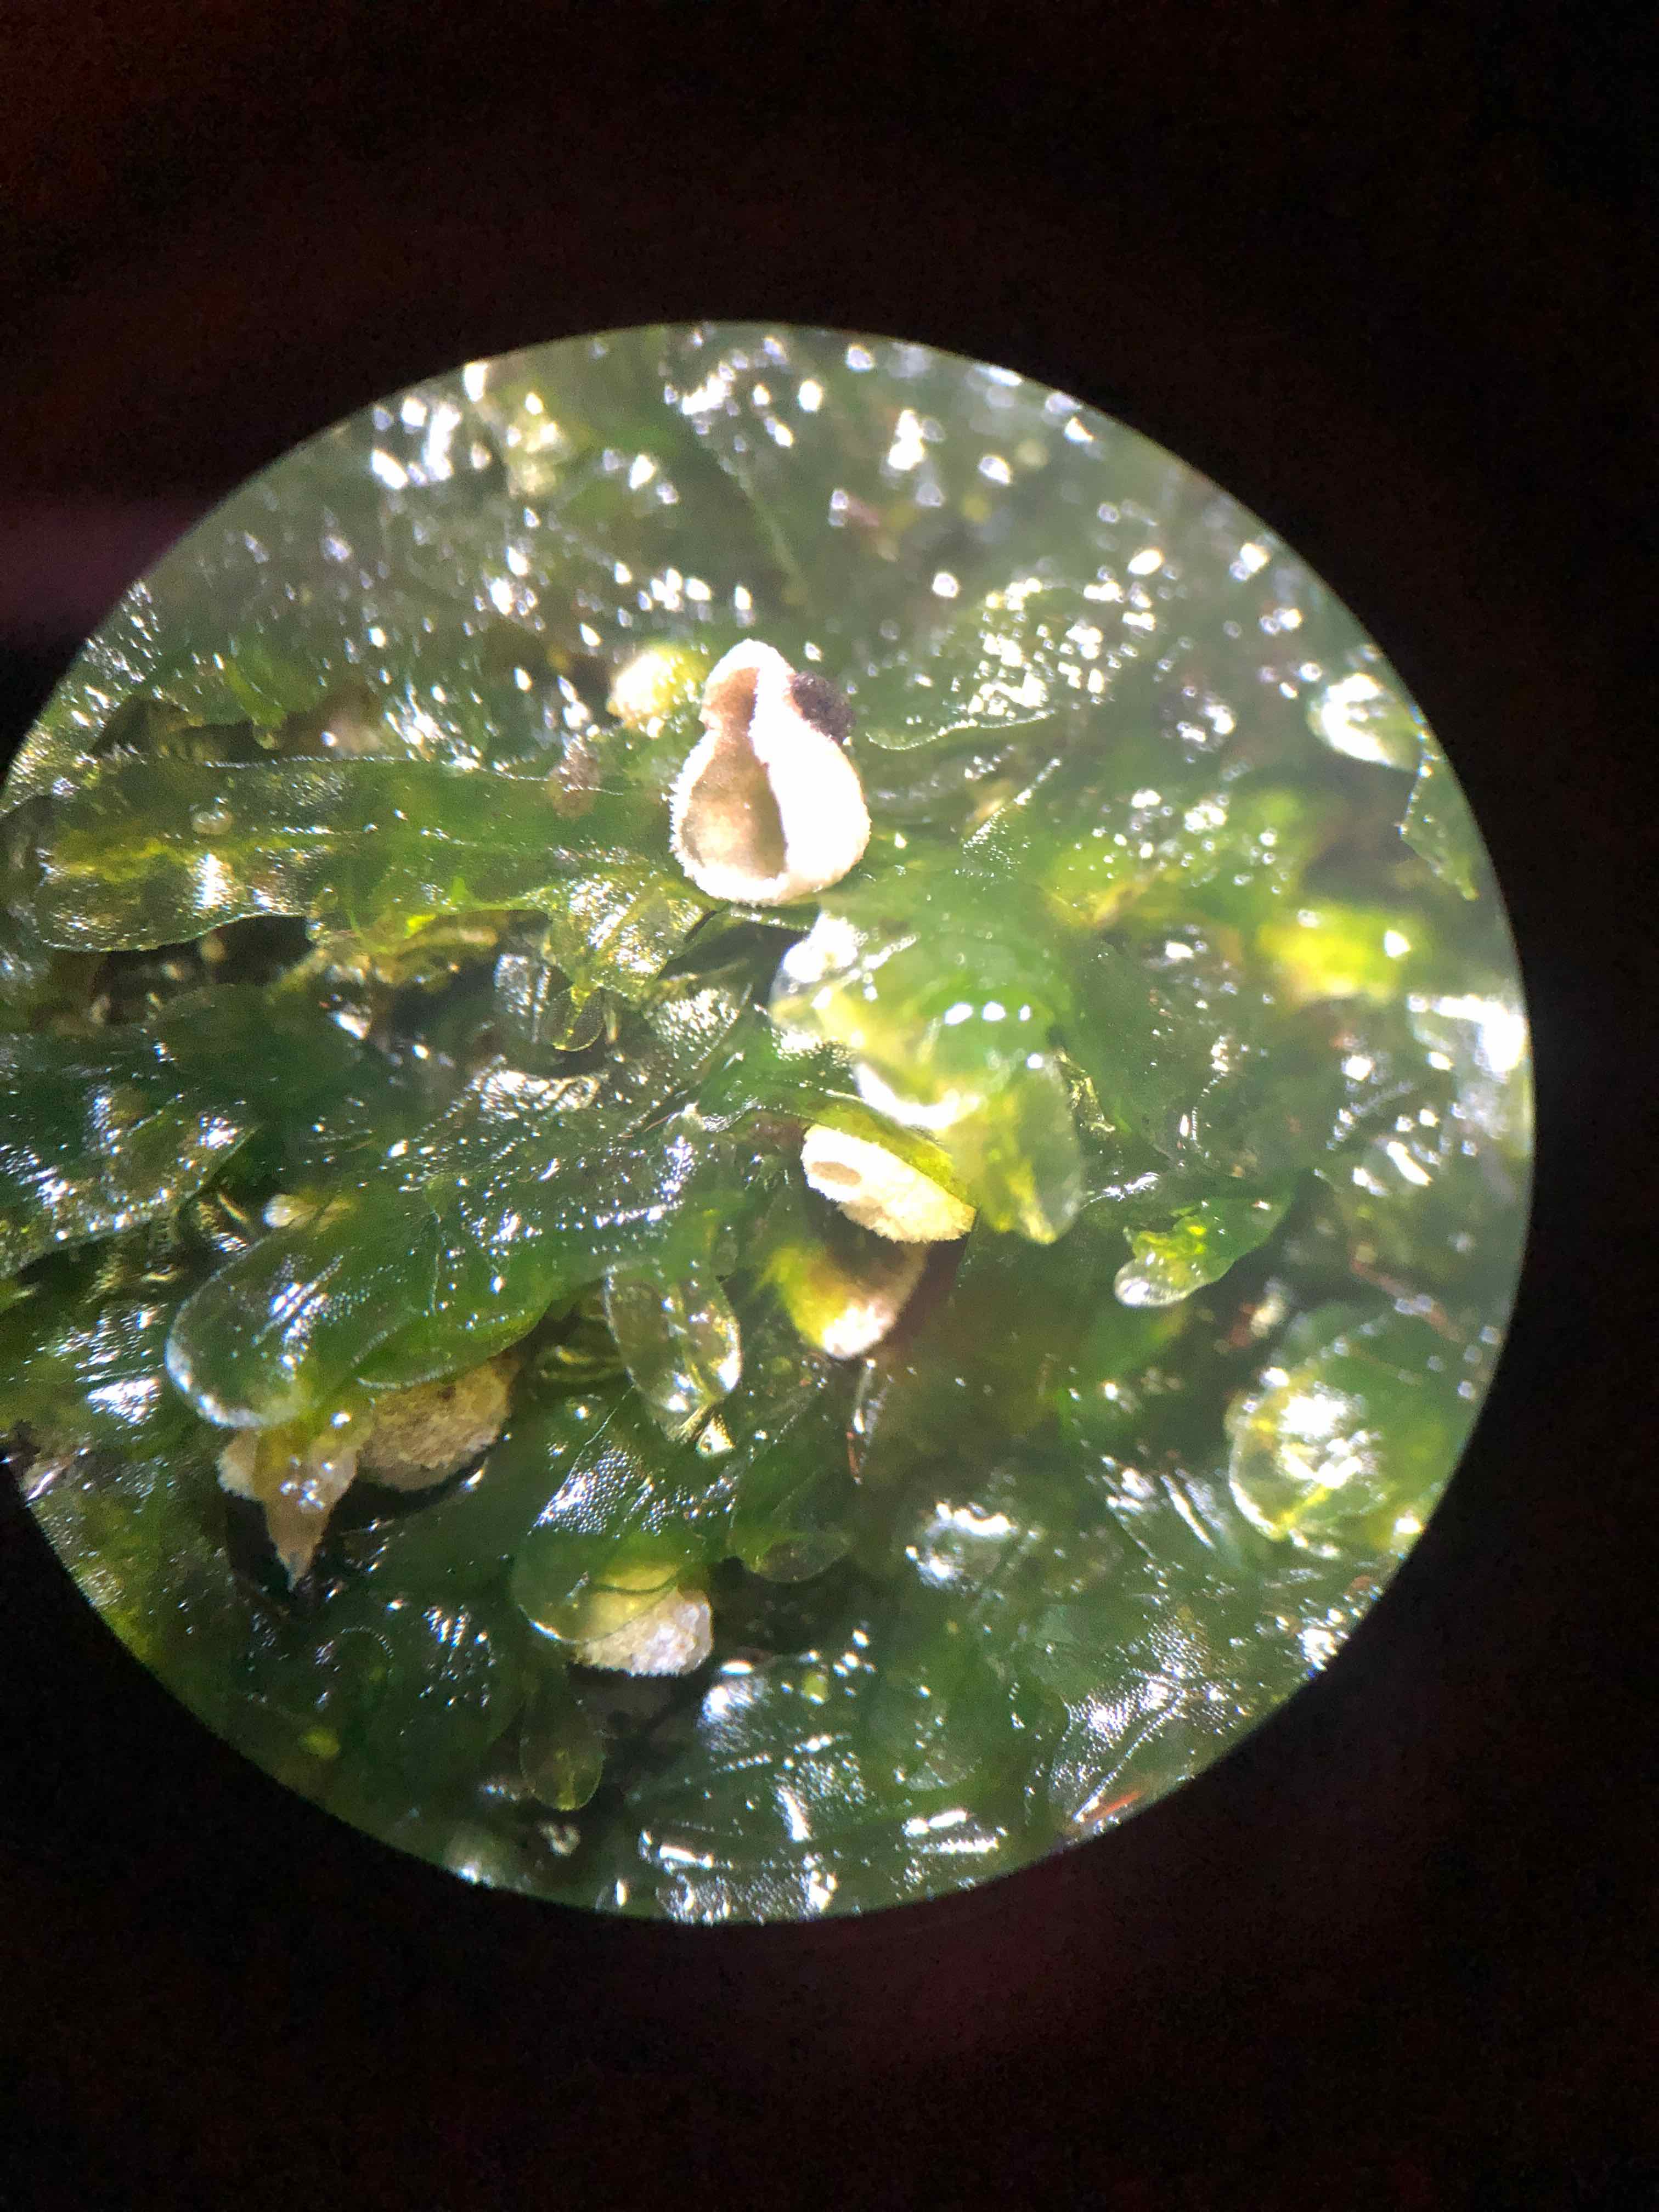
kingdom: Fungi
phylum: Basidiomycota
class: Agaricomycetes
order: Agaricales
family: Chromocyphellaceae
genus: Chromocyphella
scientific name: Chromocyphella muscicola
